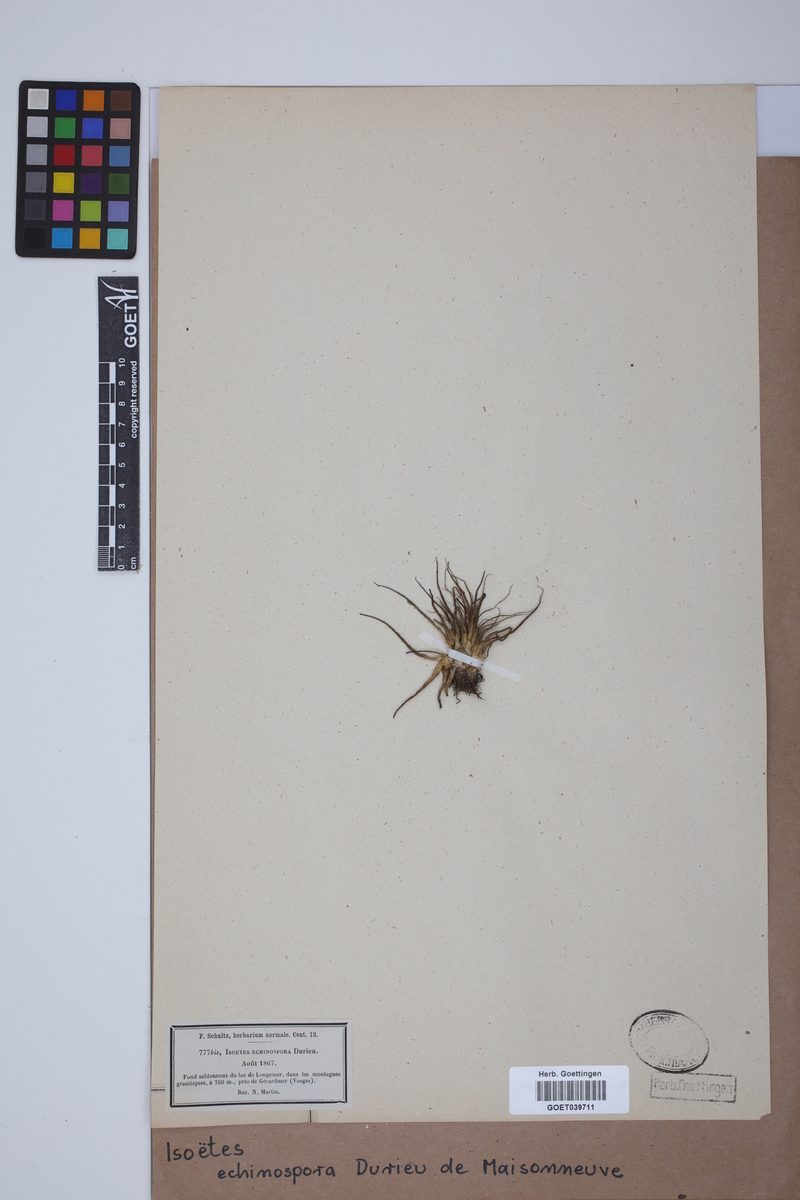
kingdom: Plantae
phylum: Tracheophyta
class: Lycopodiopsida
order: Isoetales
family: Isoetaceae
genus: Isoetes
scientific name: Isoetes echinospora
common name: Spring quillwort
